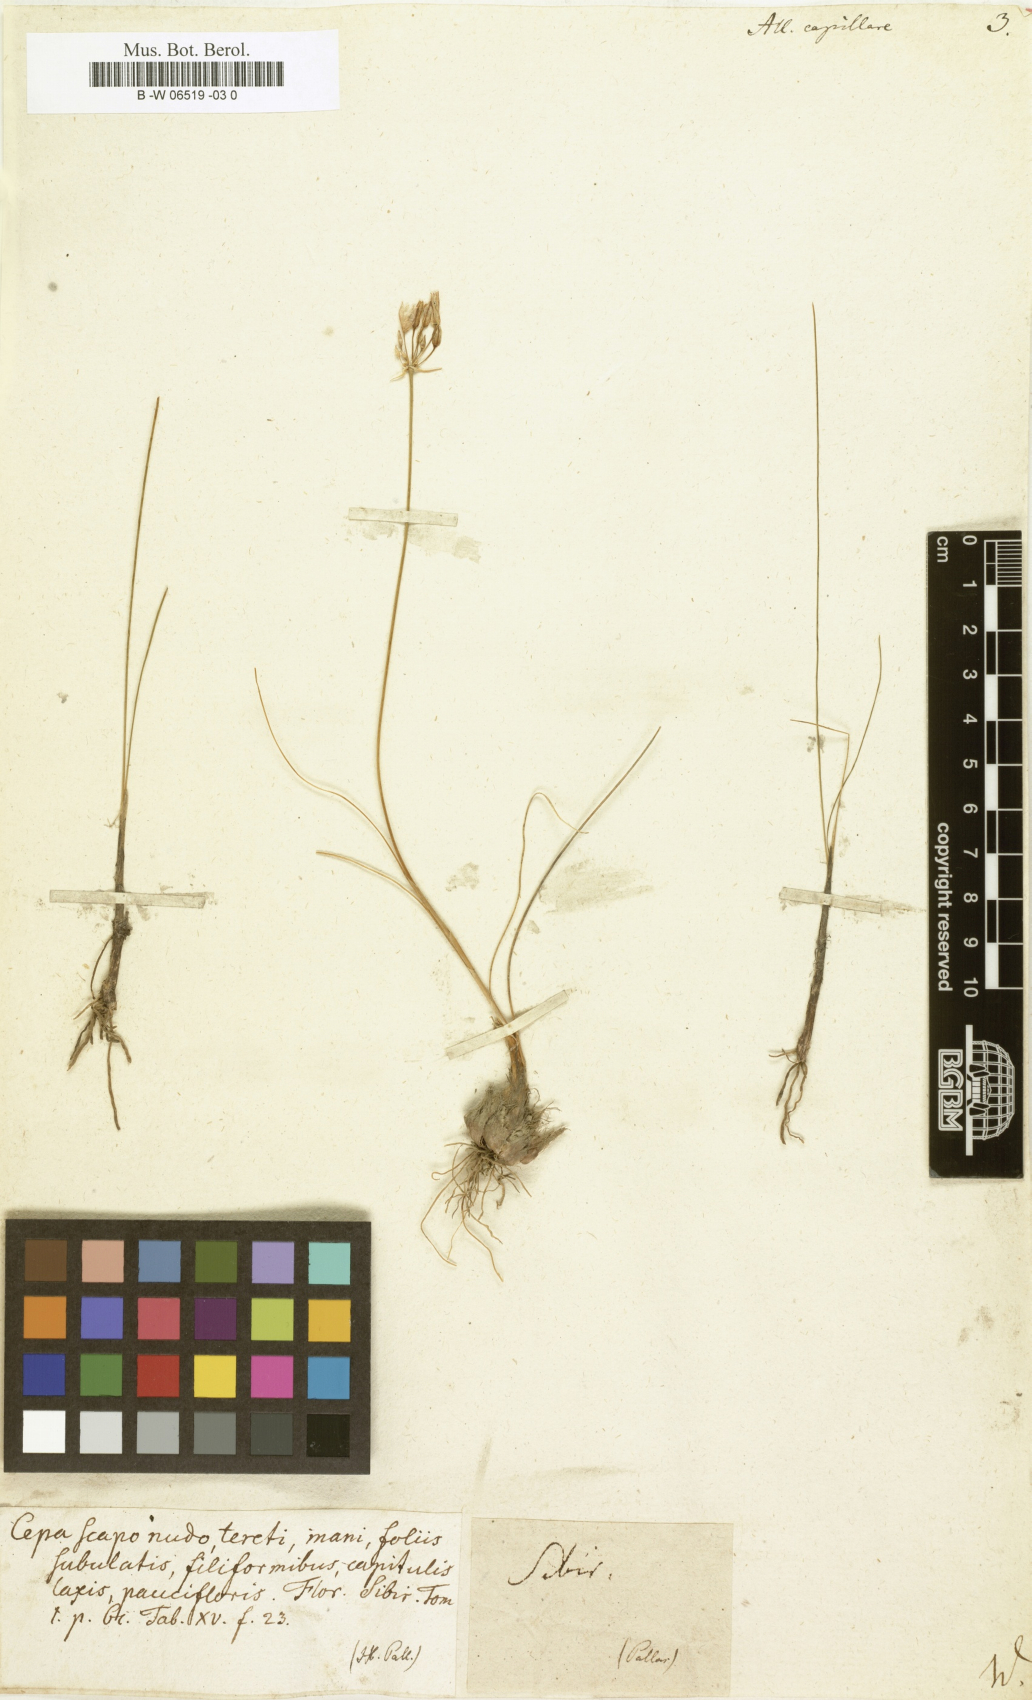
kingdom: Plantae
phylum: Tracheophyta
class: Liliopsida
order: Asparagales
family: Amaryllidaceae
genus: Allium
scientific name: Allium capillare
